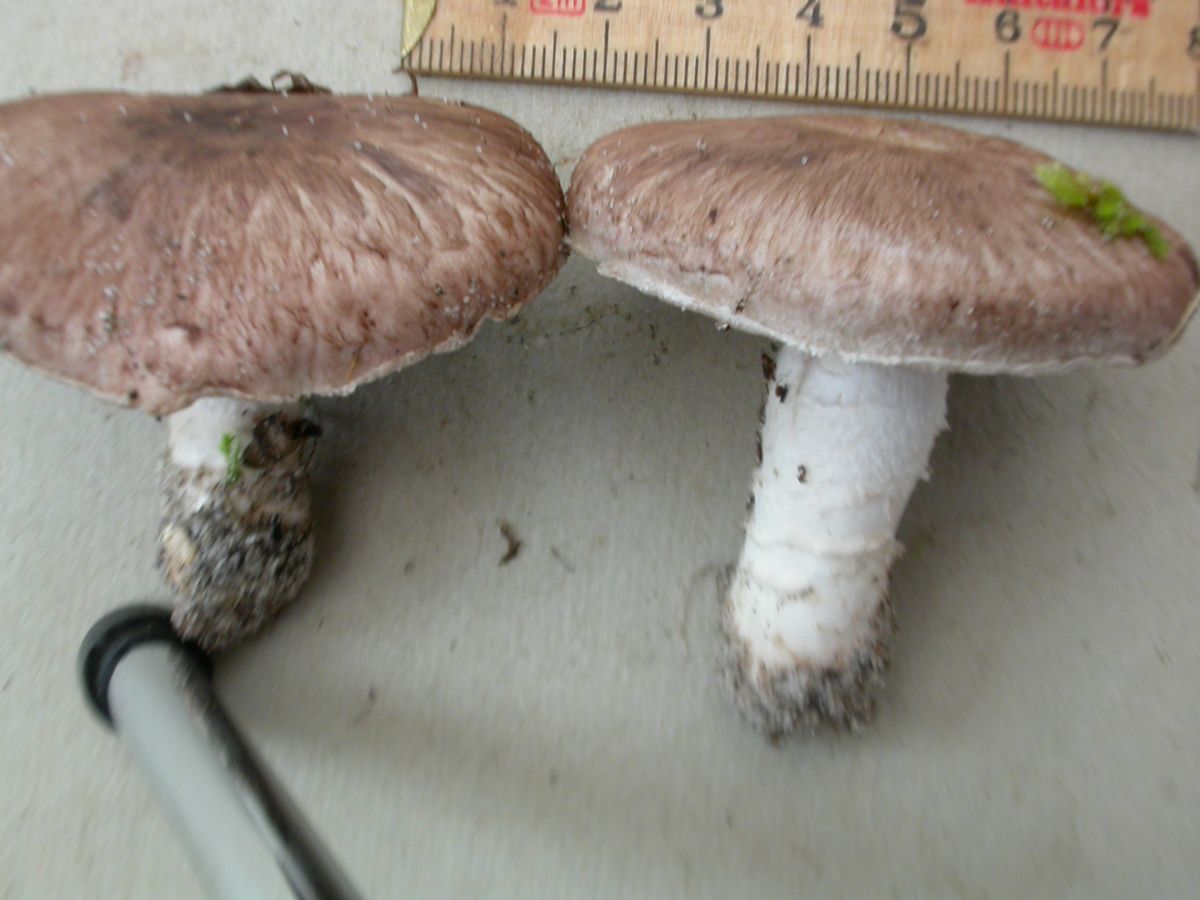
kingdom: Fungi
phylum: Basidiomycota
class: Agaricomycetes
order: Agaricales
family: Agaricaceae
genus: Agaricus
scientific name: Agaricus cupreobrunneus
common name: kobberbrun champignon
